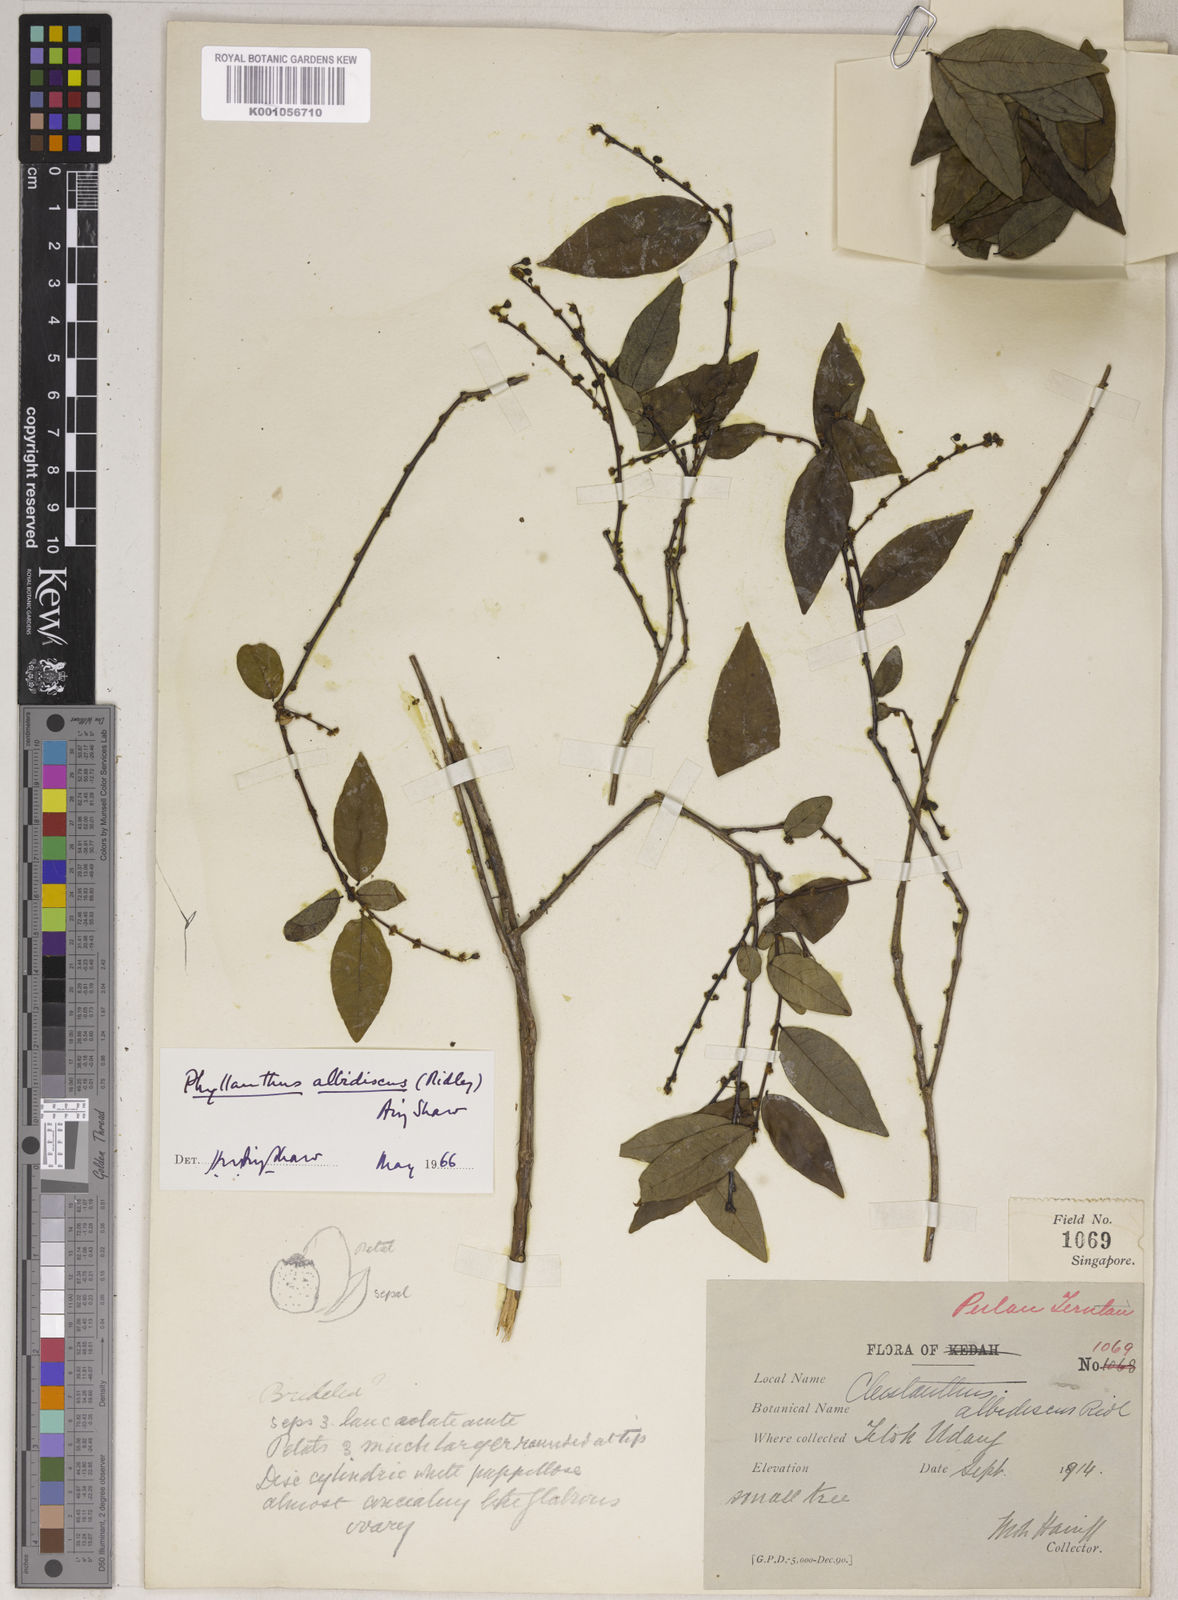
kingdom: Plantae
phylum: Tracheophyta
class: Magnoliopsida
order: Malpighiales
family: Phyllanthaceae
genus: Phyllanthus
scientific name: Phyllanthus albidiscus
